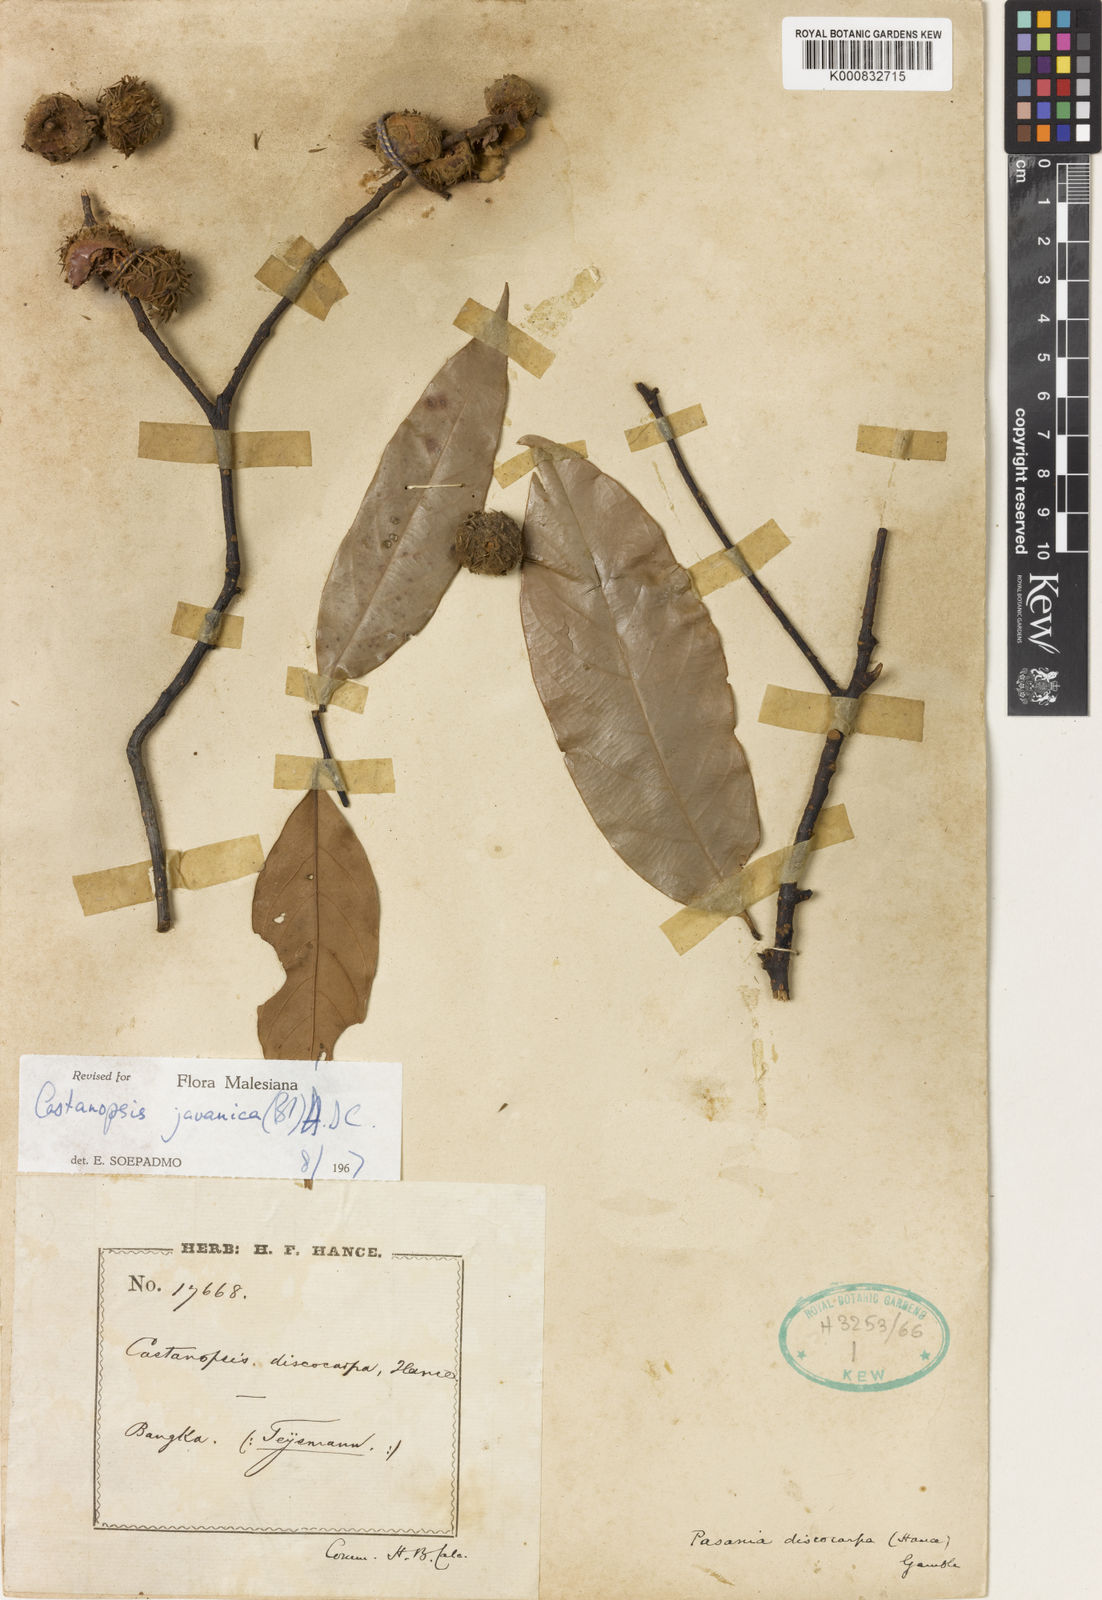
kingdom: Plantae
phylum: Tracheophyta
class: Magnoliopsida
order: Fagales
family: Fagaceae
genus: Castanopsis
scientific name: Castanopsis javanica
